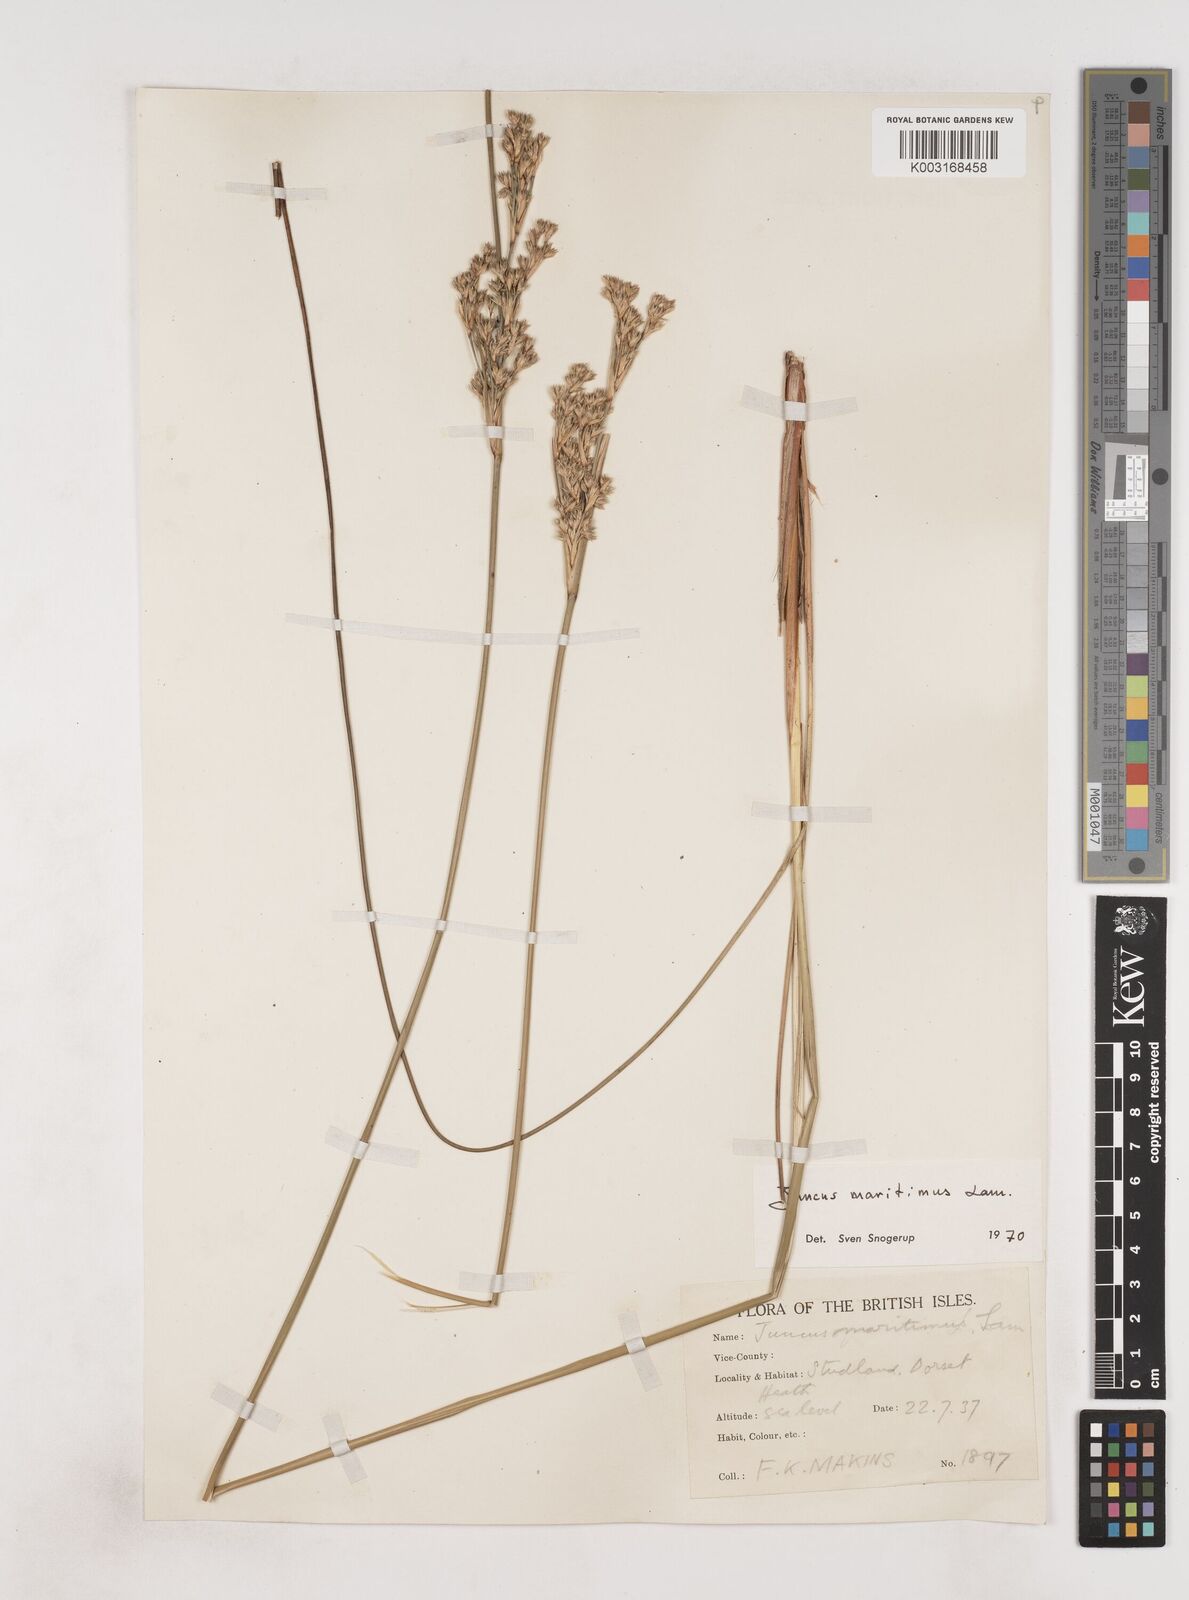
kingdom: Plantae
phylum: Tracheophyta
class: Liliopsida
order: Poales
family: Juncaceae
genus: Juncus
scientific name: Juncus maritimus
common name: Sea rush
